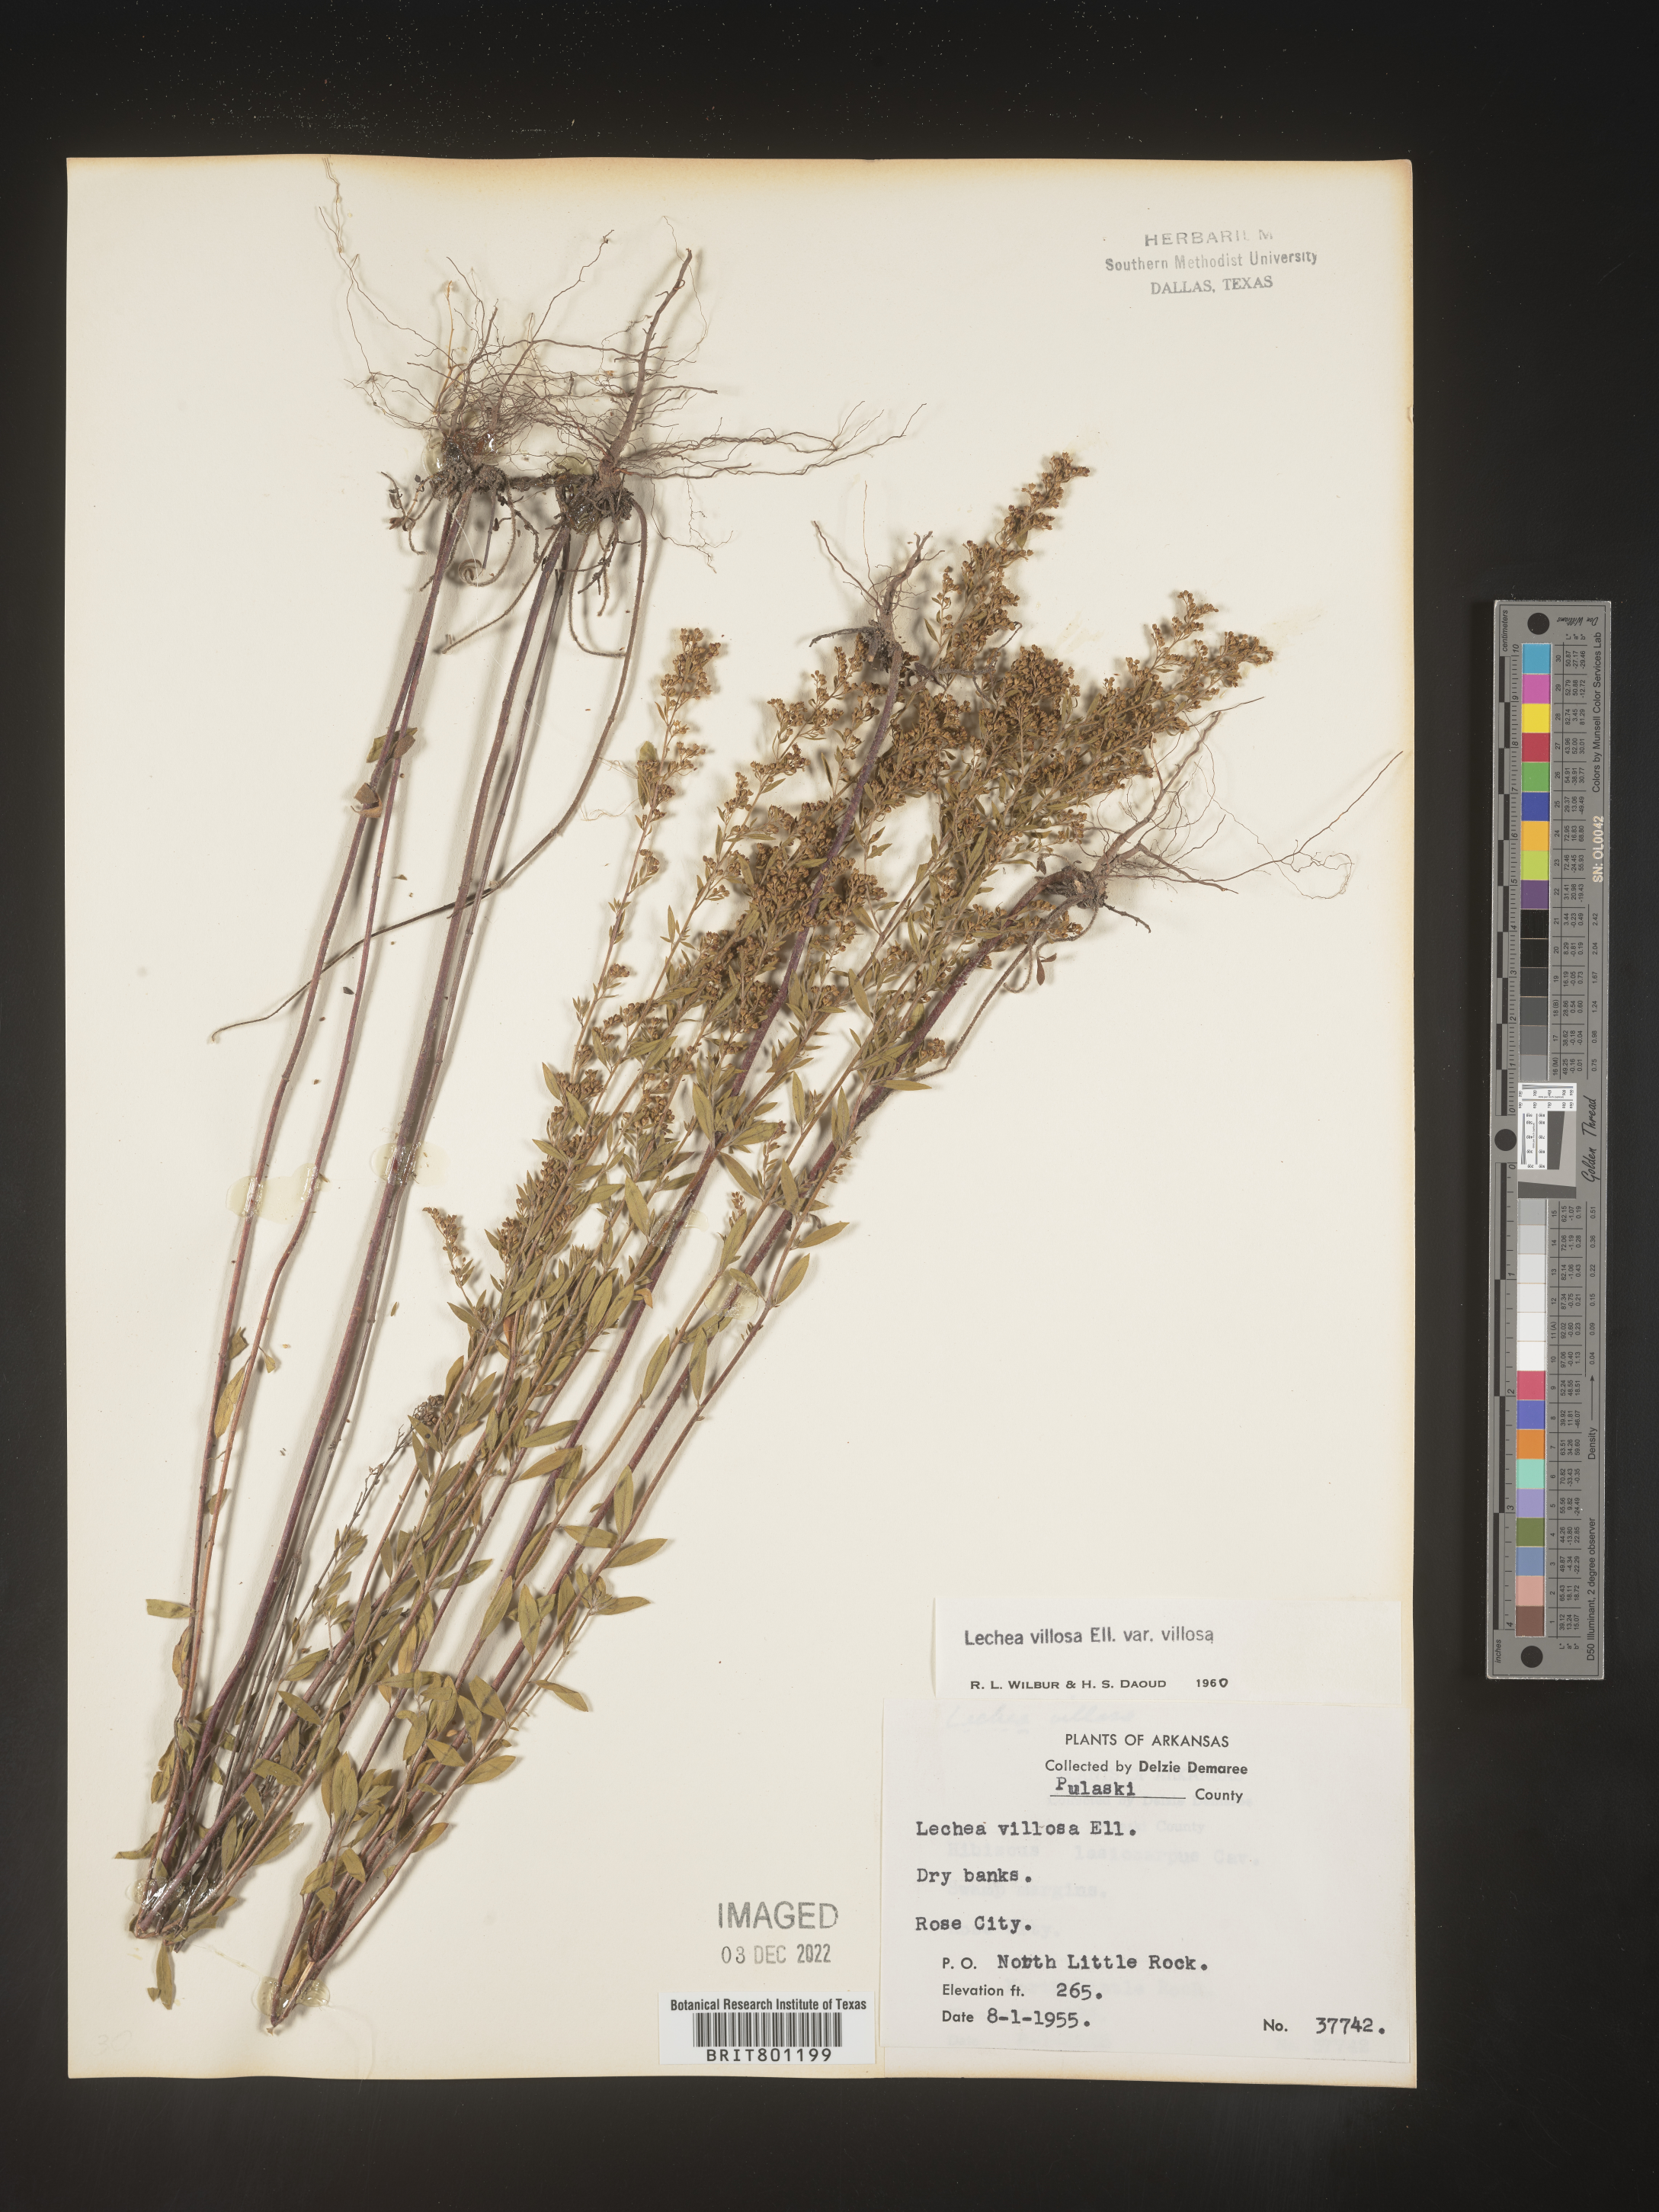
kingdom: Plantae
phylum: Tracheophyta
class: Magnoliopsida
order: Malvales
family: Cistaceae
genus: Lechea
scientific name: Lechea mucronata
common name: Hairy pinweed
